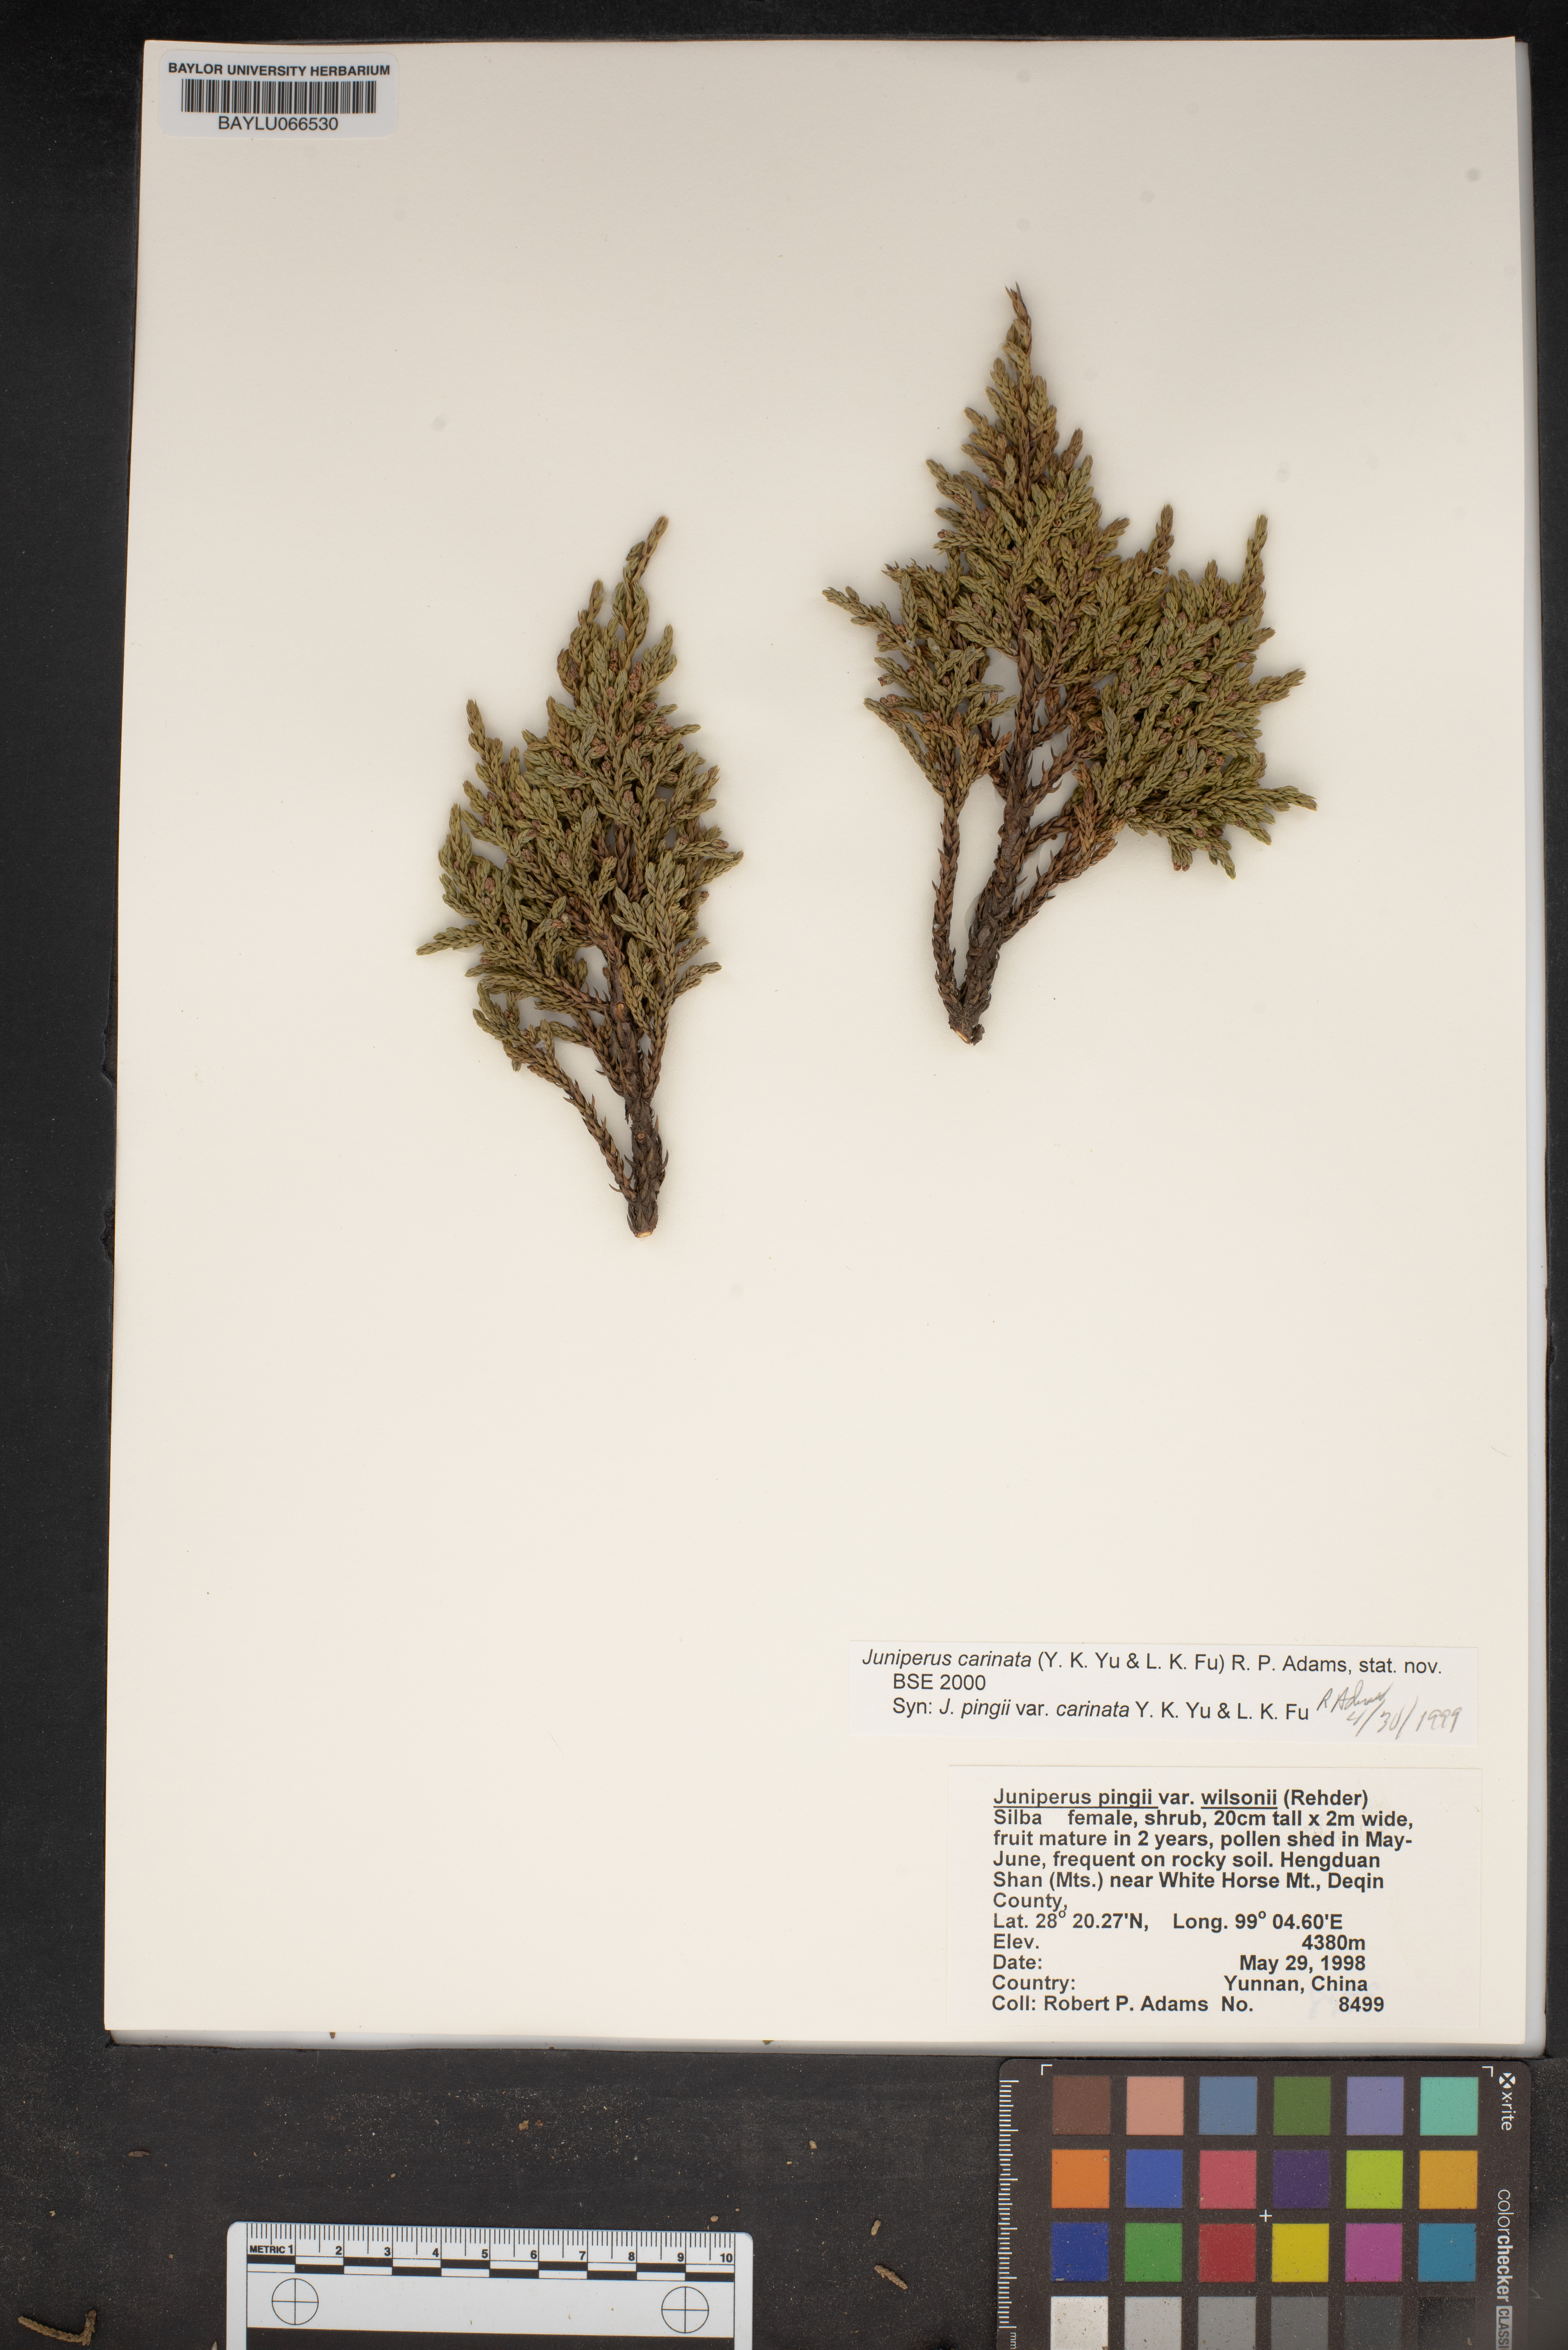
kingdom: Plantae
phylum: Tracheophyta
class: Pinopsida
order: Pinales
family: Cupressaceae
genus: Juniperus
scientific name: Juniperus pingii
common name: Ping's juniper
